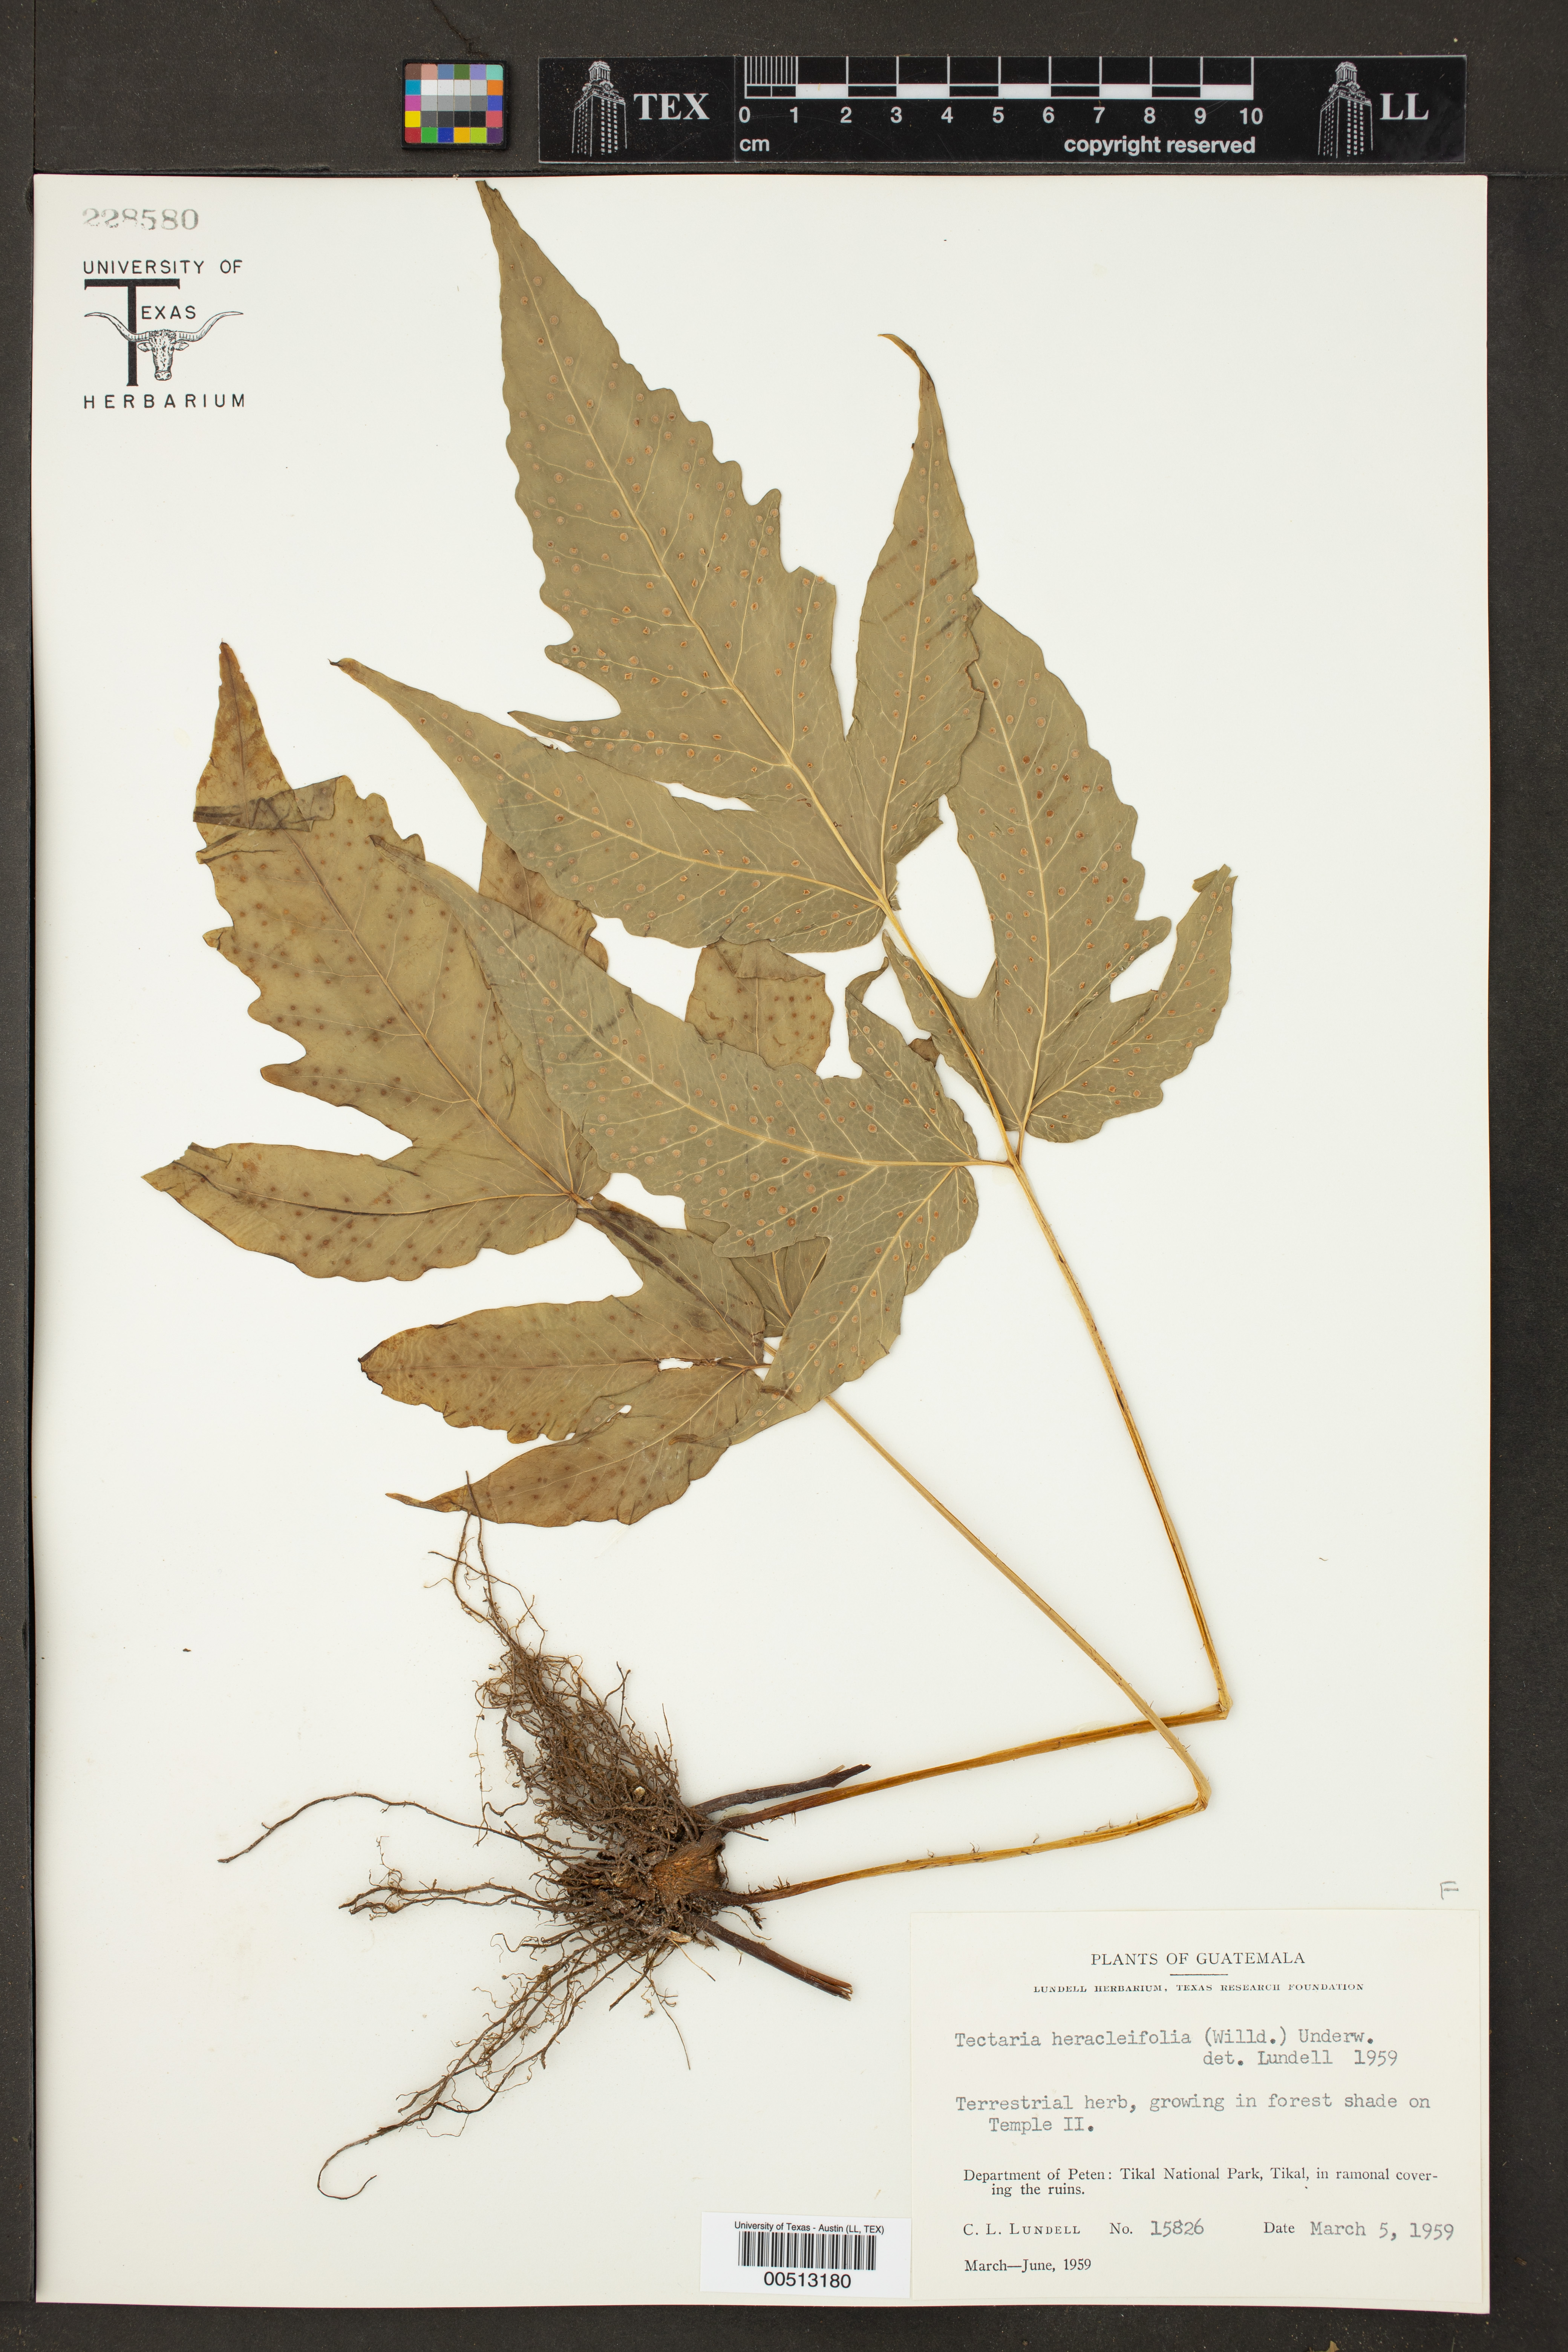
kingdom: Plantae
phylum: Tracheophyta
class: Polypodiopsida
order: Polypodiales
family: Tectariaceae
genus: Tectaria
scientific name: Tectaria heracleifolia
